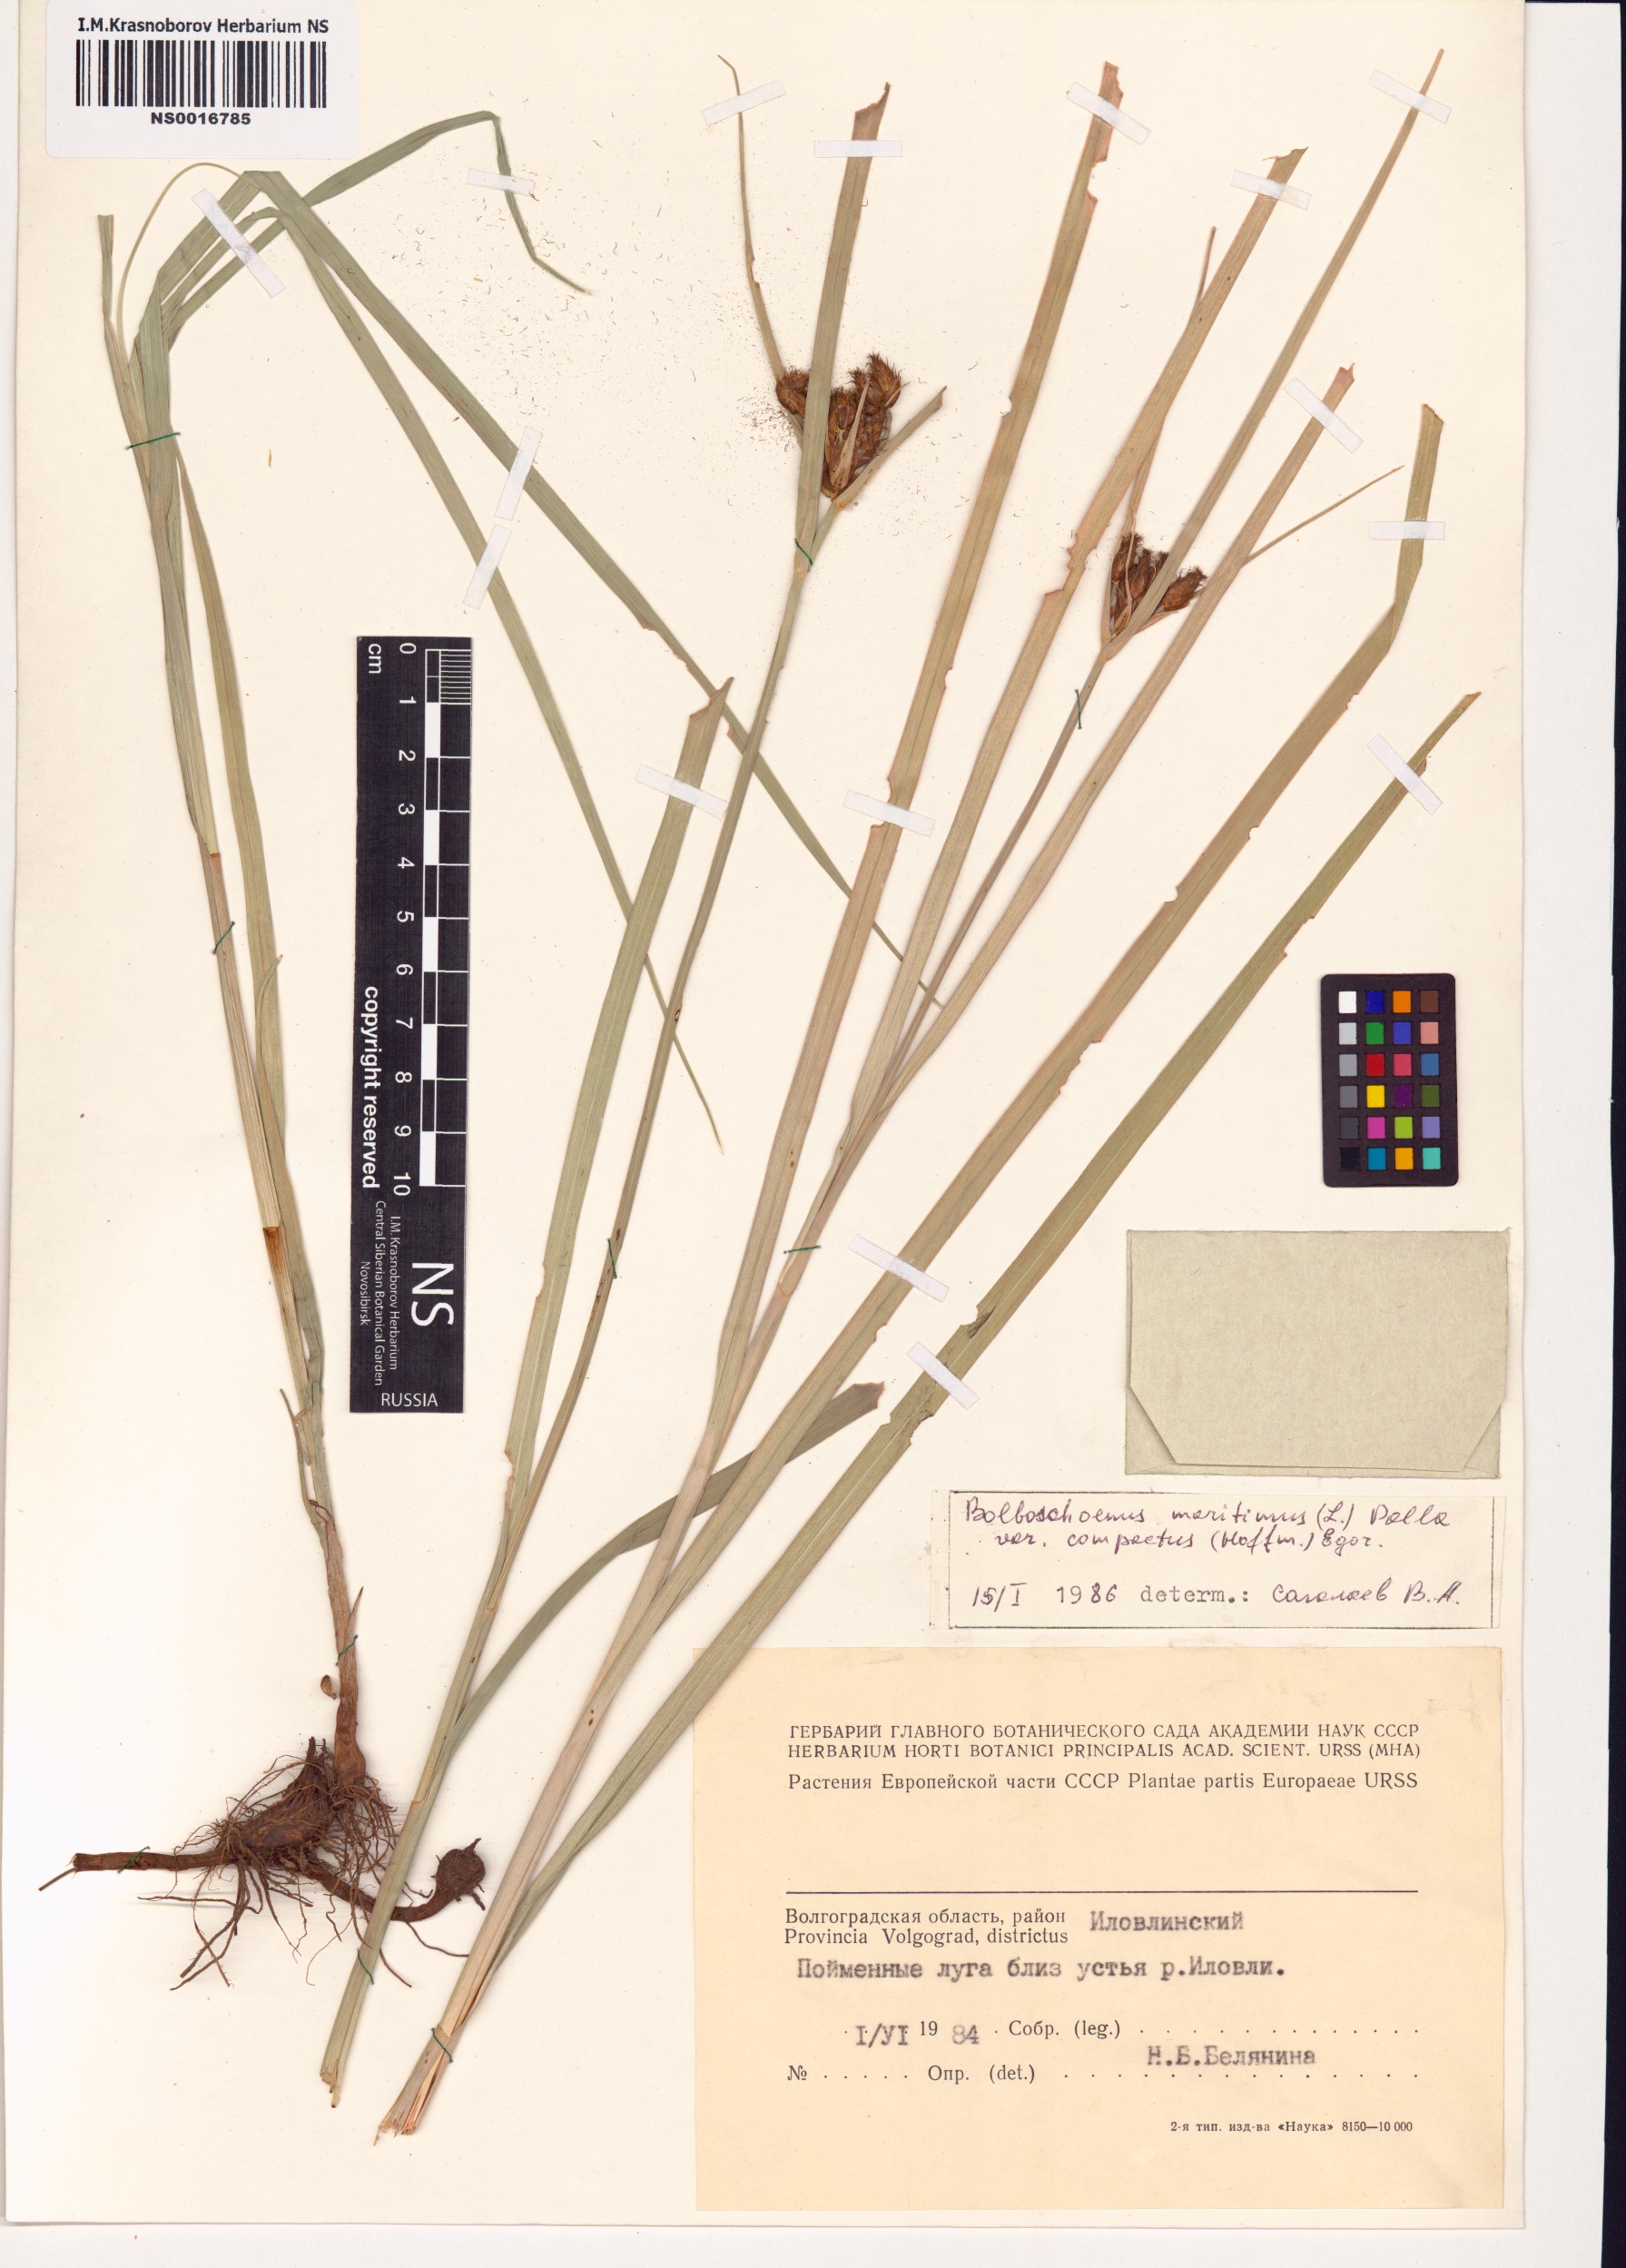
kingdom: Plantae
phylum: Tracheophyta
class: Liliopsida
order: Poales
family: Cyperaceae
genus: Bolboschoenus
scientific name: Bolboschoenus maritimus
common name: Sea club-rush
